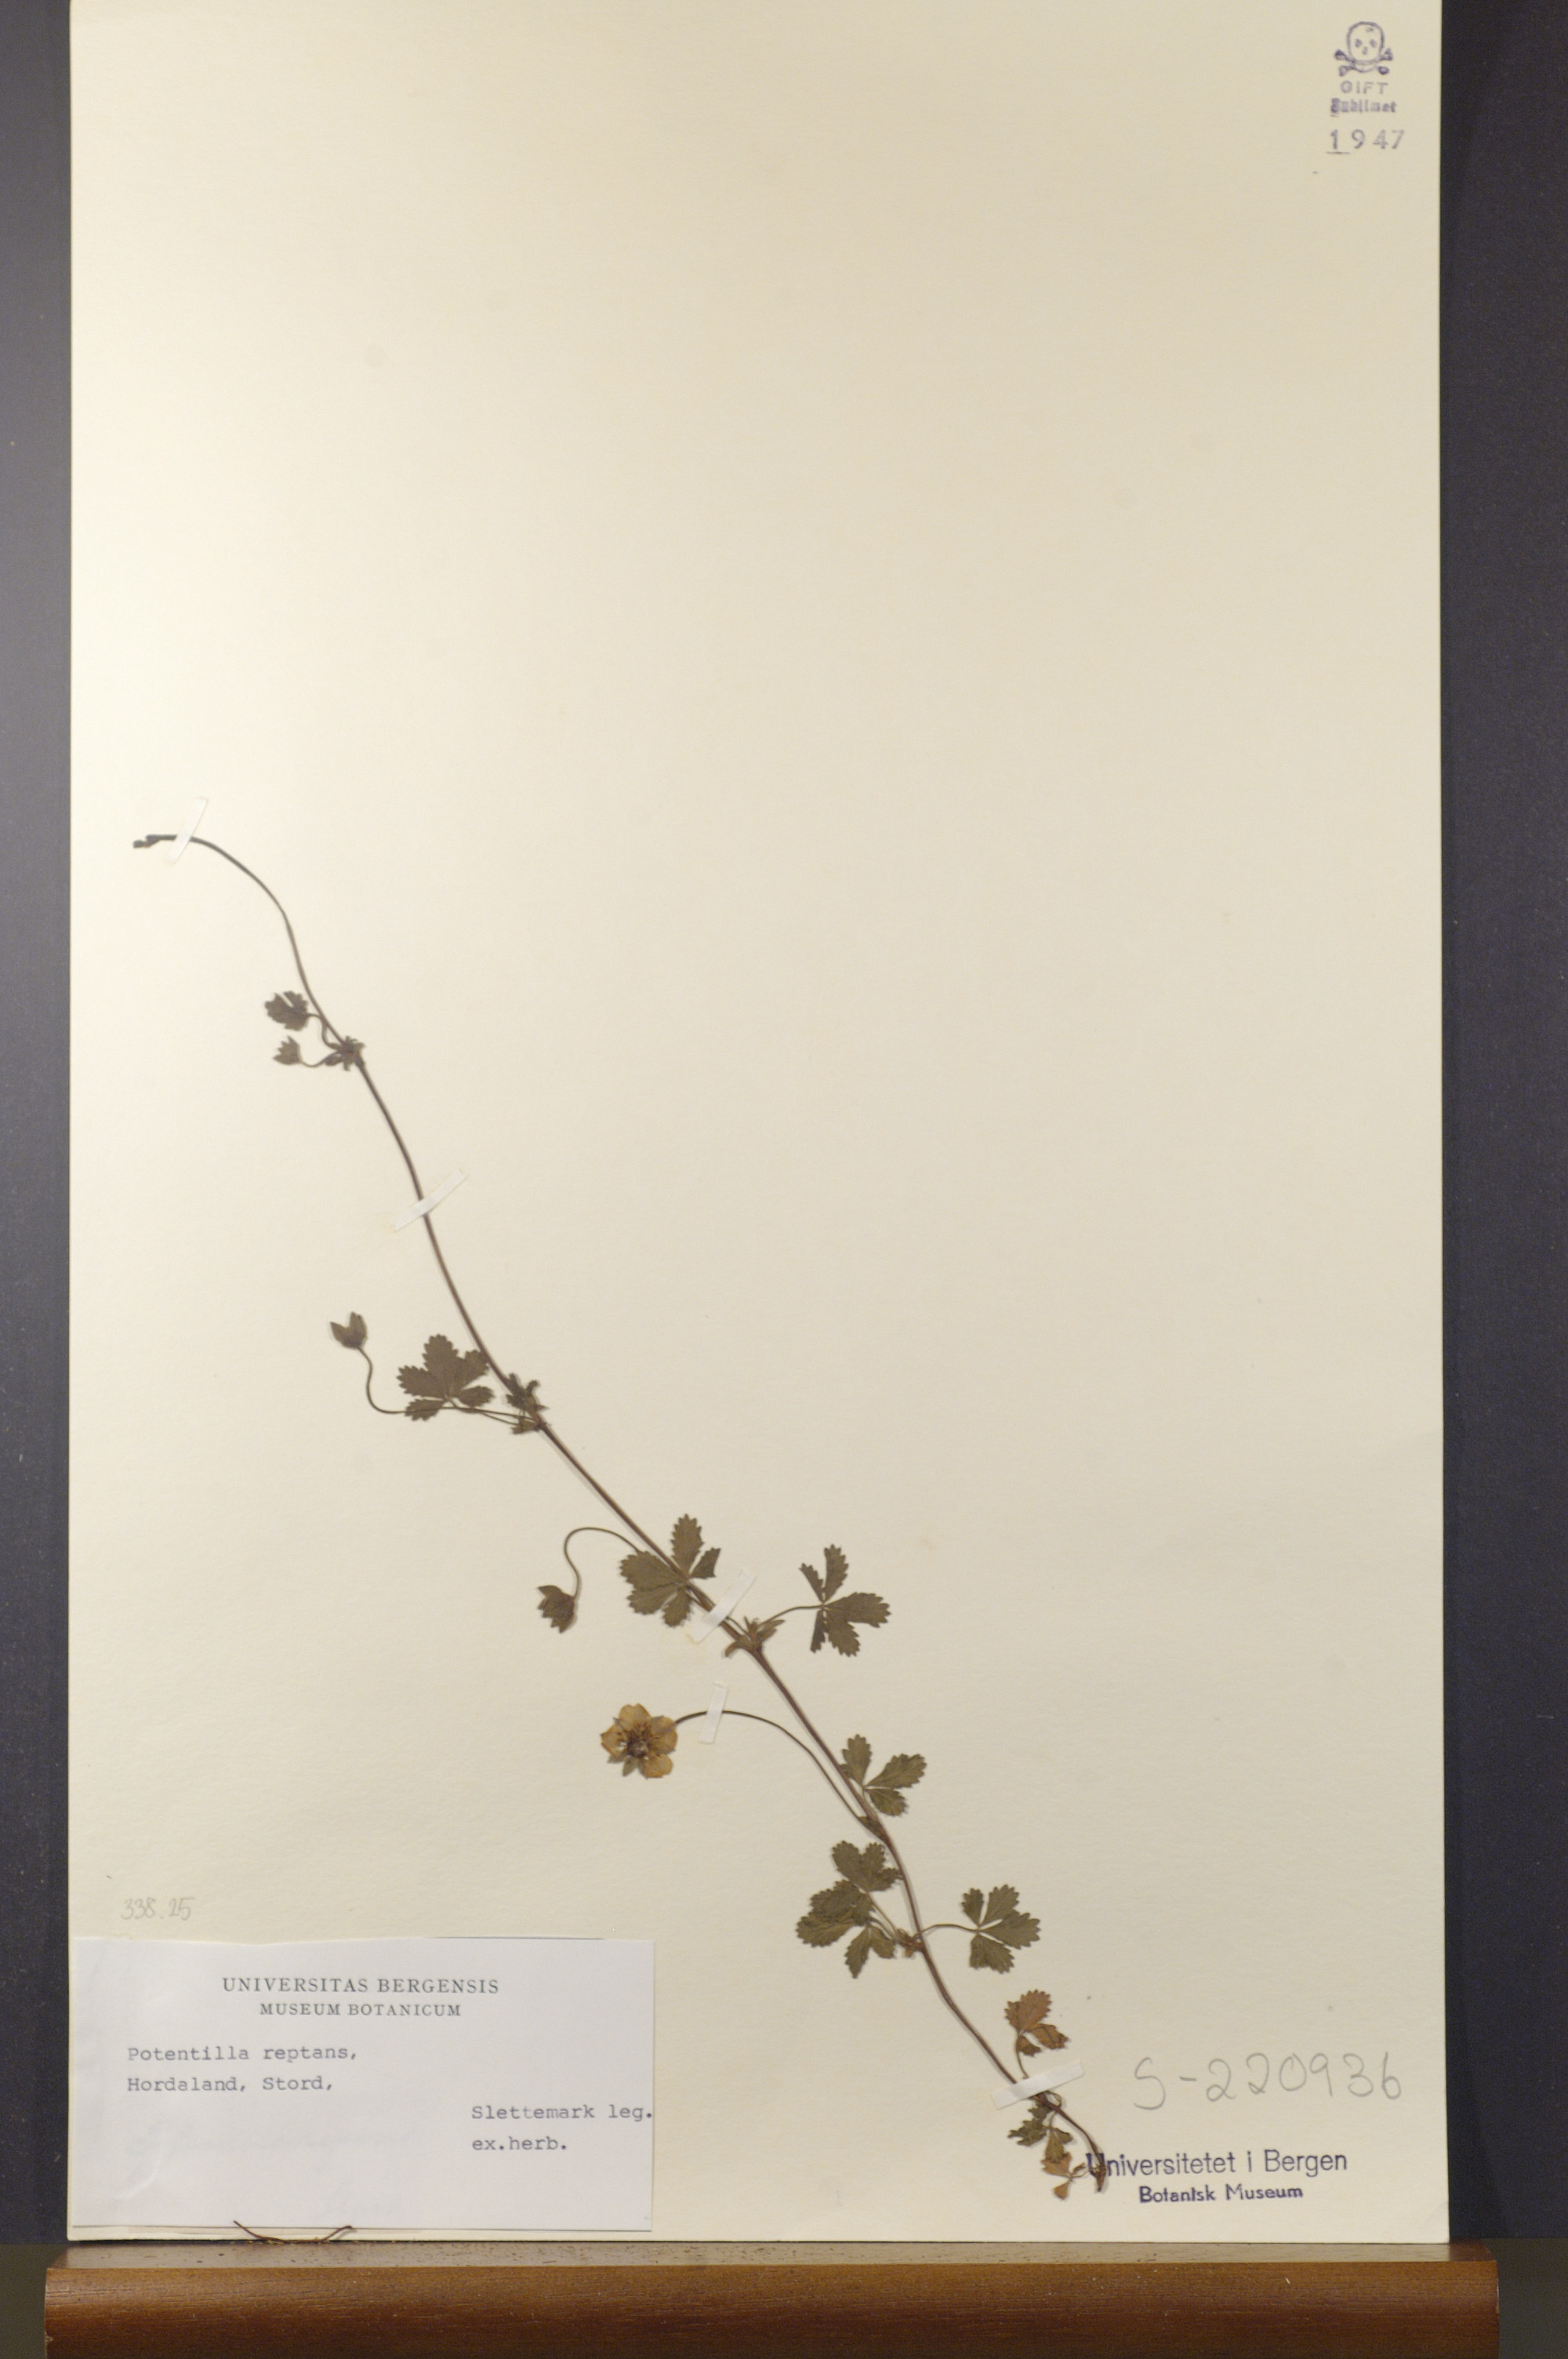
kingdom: Plantae
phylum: Tracheophyta
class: Magnoliopsida
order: Rosales
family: Rosaceae
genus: Potentilla
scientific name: Potentilla reptans
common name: Creeping cinquefoil
